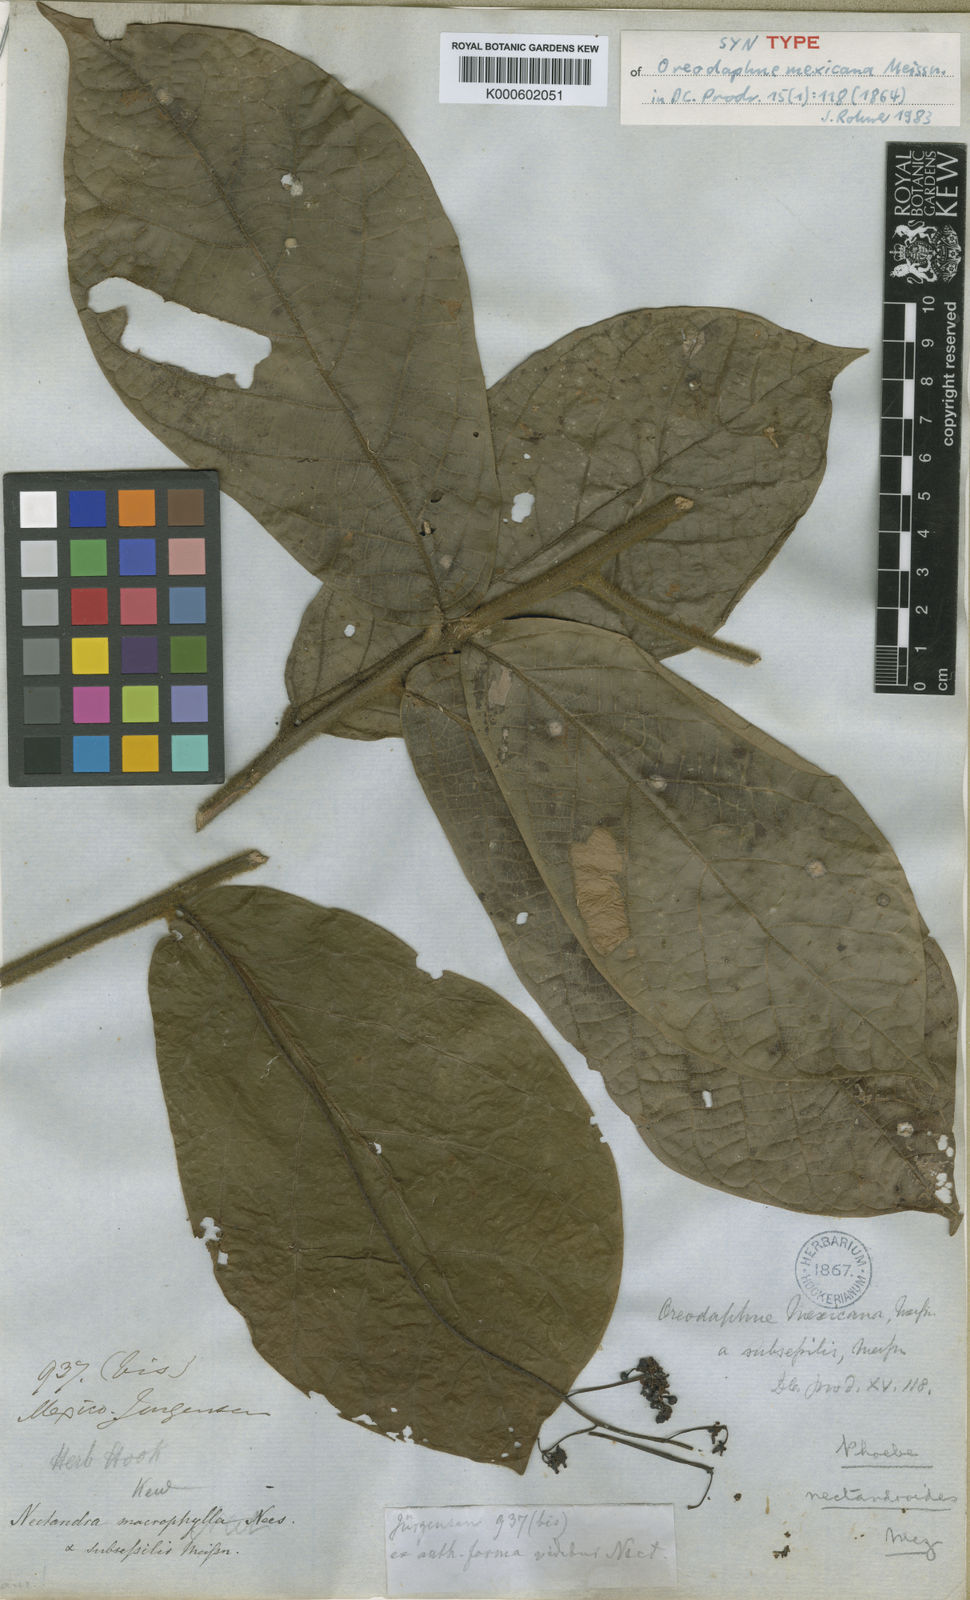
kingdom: Plantae
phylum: Tracheophyta
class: Magnoliopsida
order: Laurales
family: Lauraceae
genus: Ocotea
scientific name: Ocotea macrophylla
